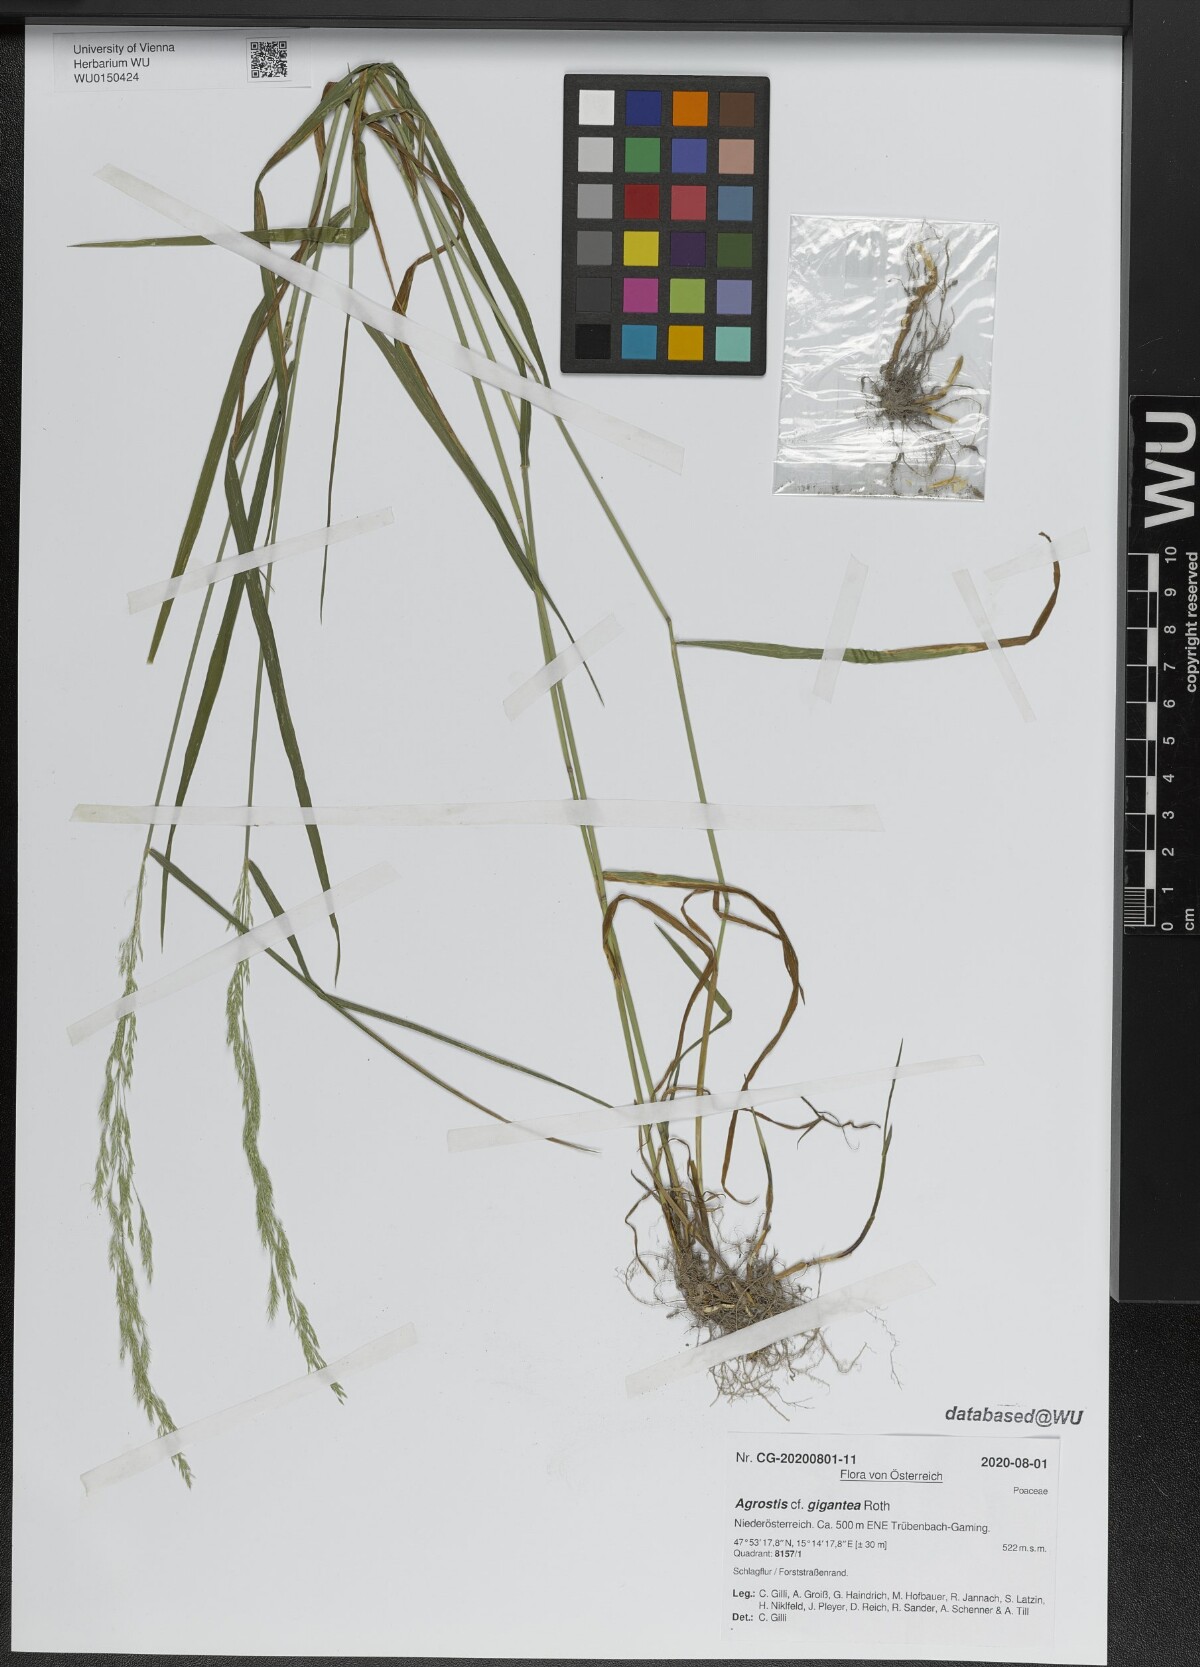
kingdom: Plantae
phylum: Tracheophyta
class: Liliopsida
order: Poales
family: Poaceae
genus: Agrostis
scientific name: Agrostis gigantea
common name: Black bent
